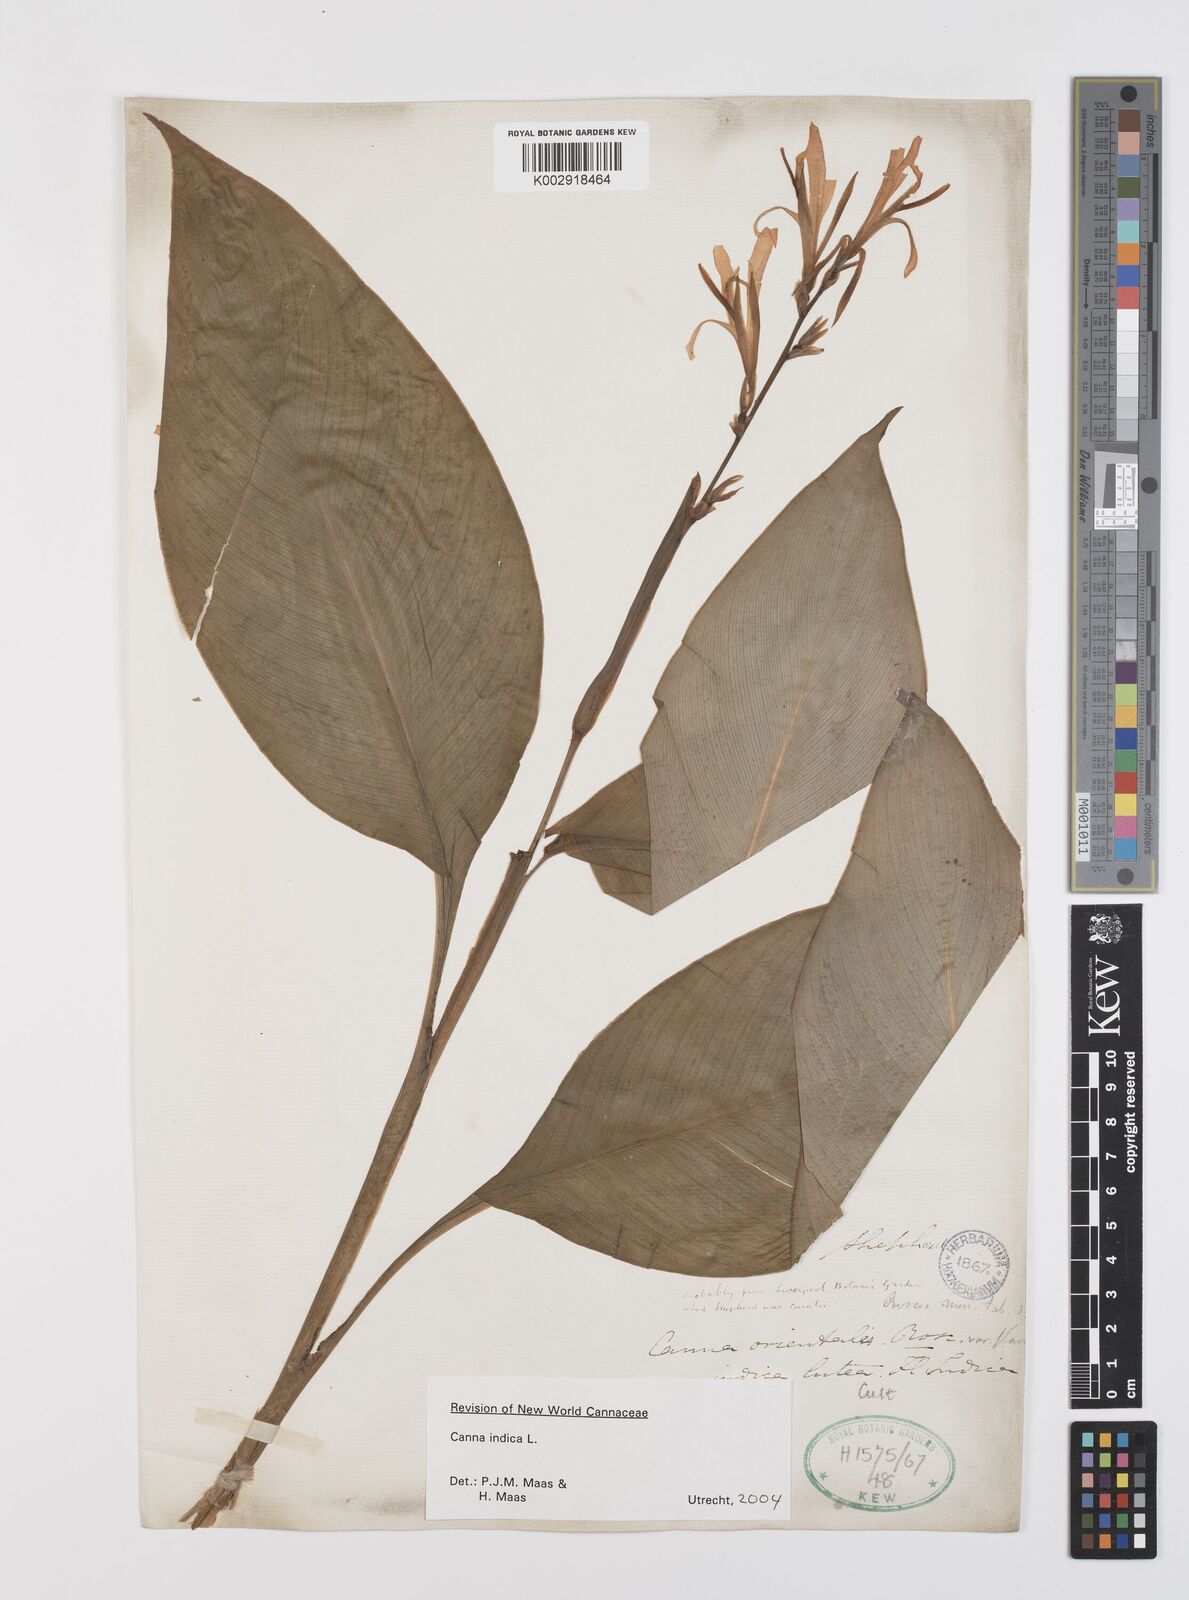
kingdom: Plantae
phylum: Tracheophyta
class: Liliopsida
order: Zingiberales
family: Cannaceae
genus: Canna
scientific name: Canna indica
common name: Indian shot
